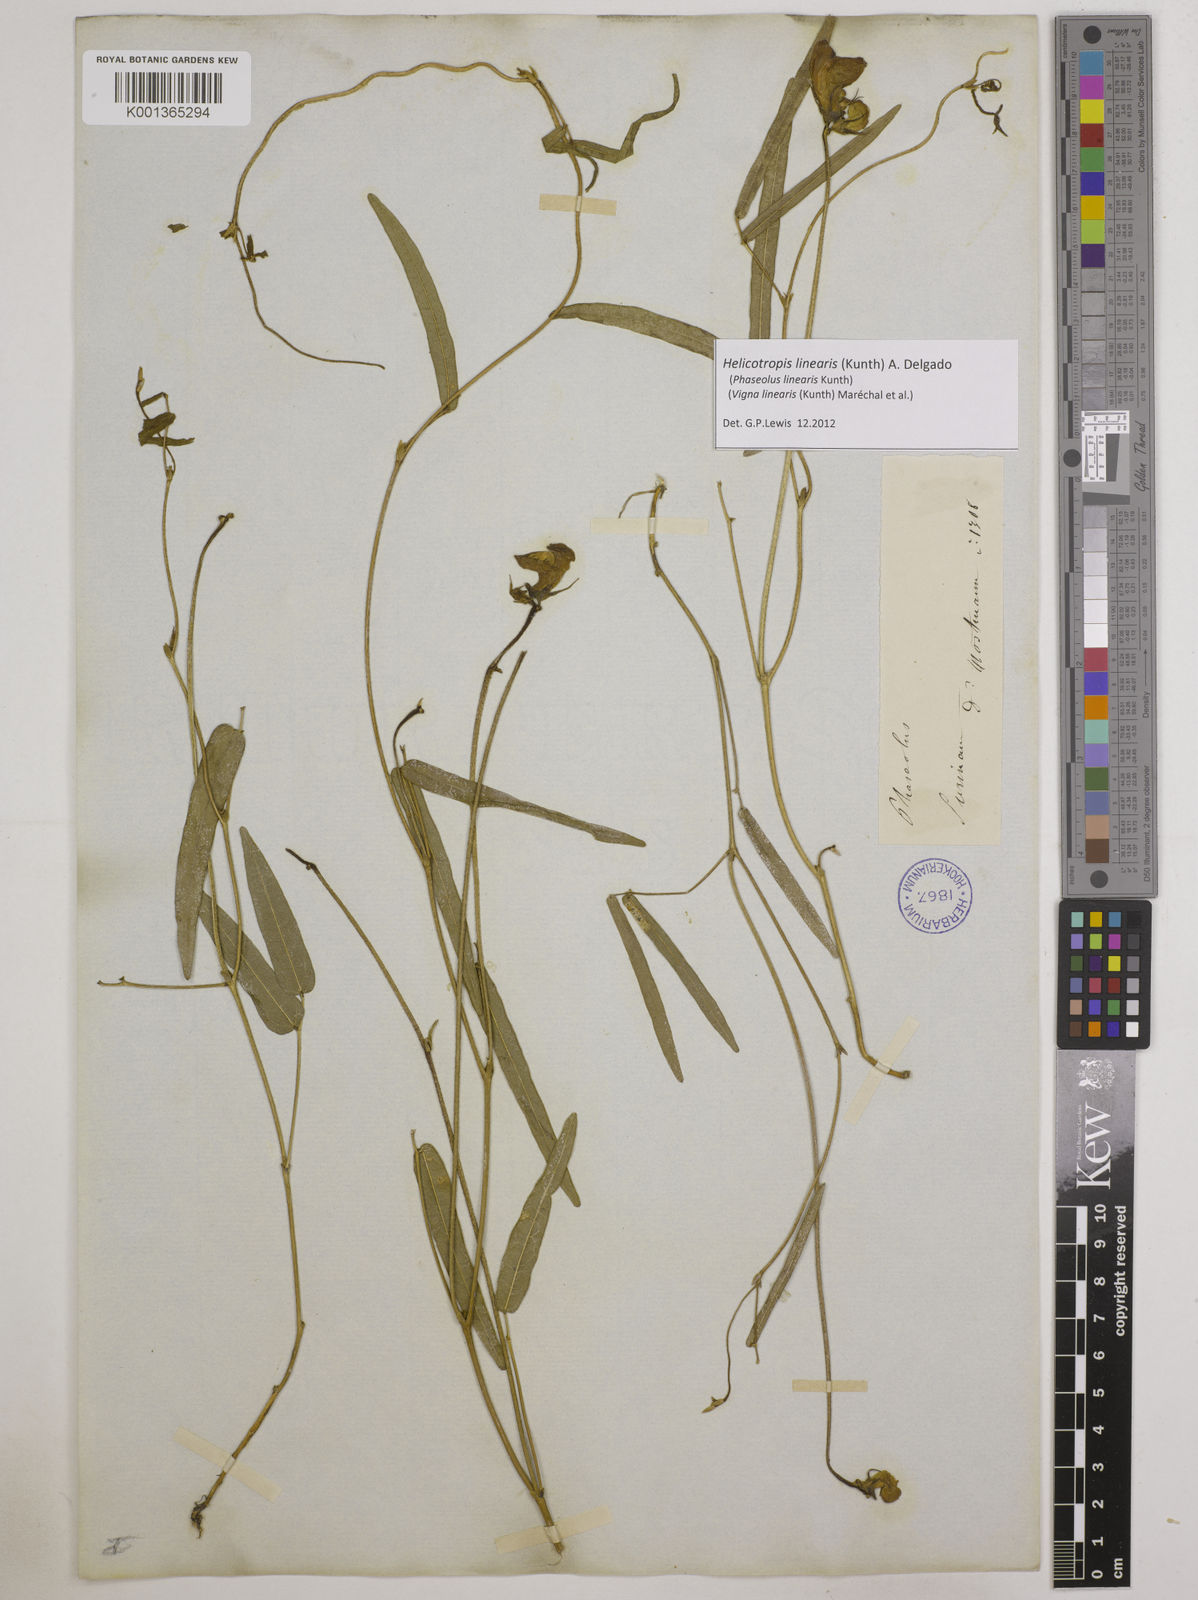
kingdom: Plantae
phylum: Tracheophyta
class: Magnoliopsida
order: Fabales
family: Fabaceae
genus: Helicotropis
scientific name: Helicotropis linearis
